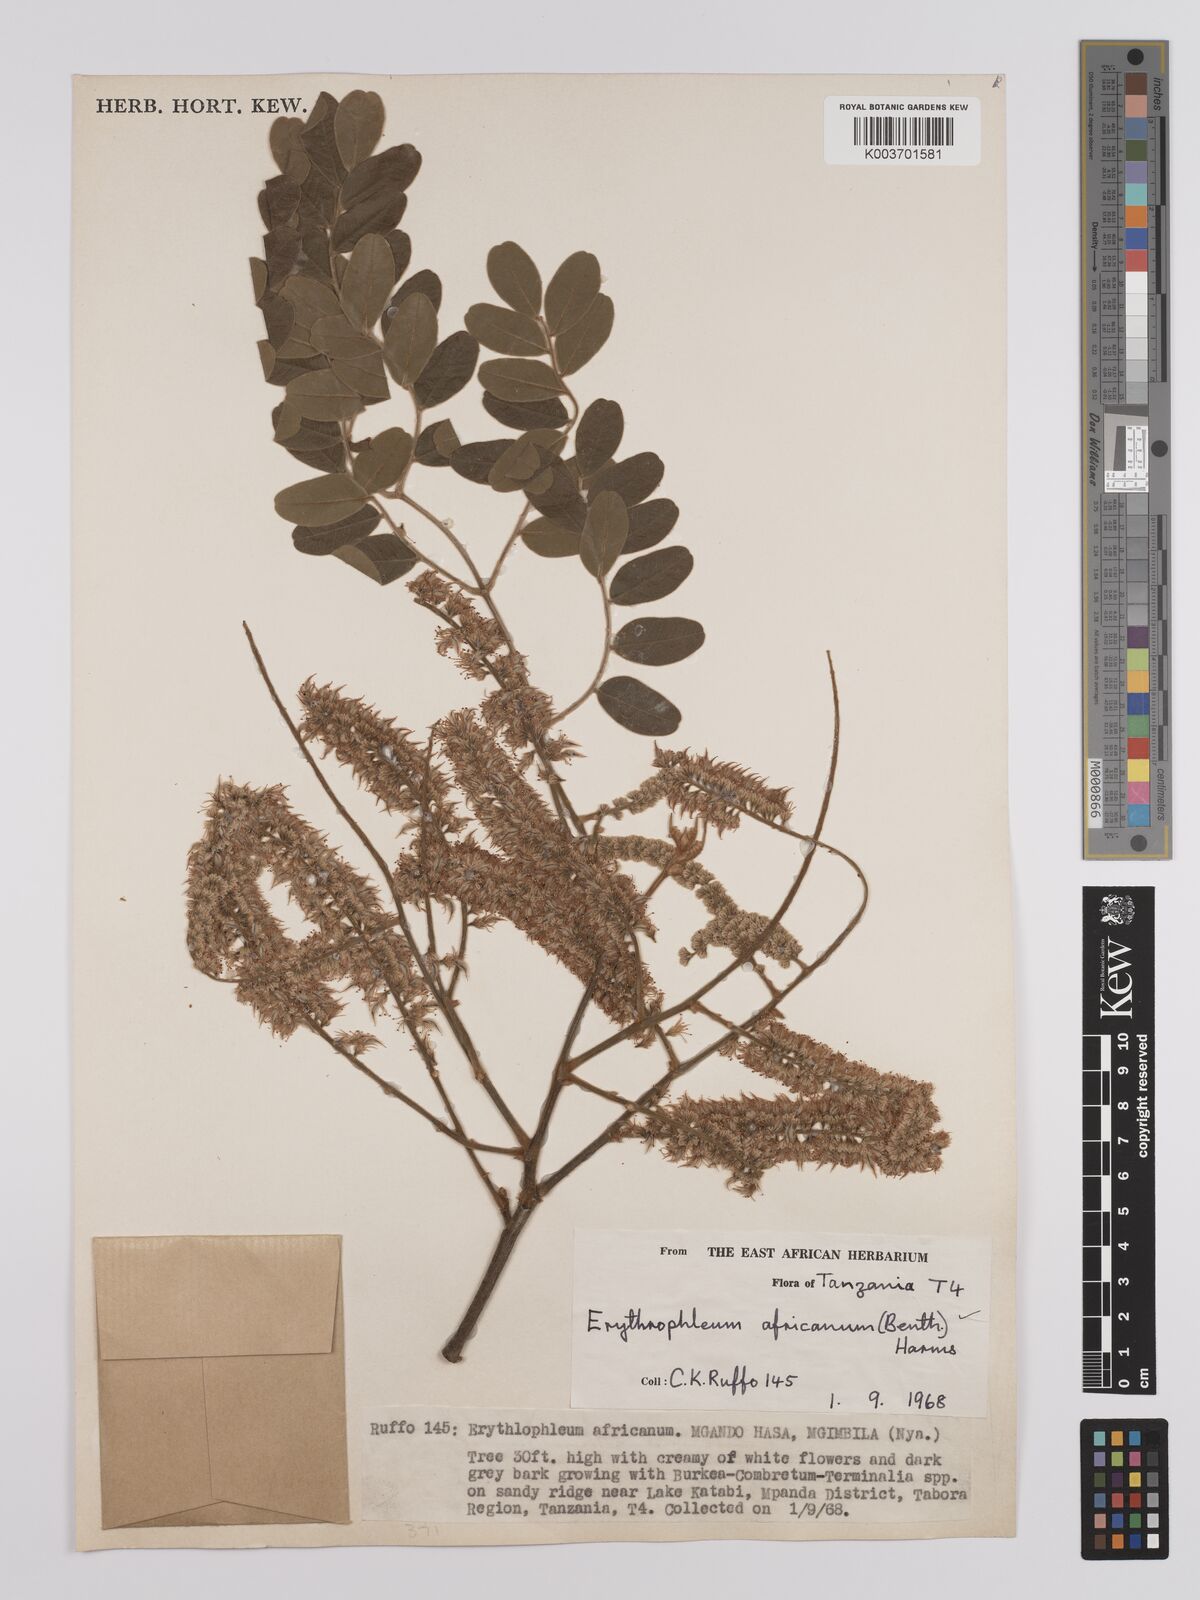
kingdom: Plantae
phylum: Tracheophyta
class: Magnoliopsida
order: Fabales
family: Fabaceae
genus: Erythrophleum
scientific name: Erythrophleum africanum
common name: African blackwood
